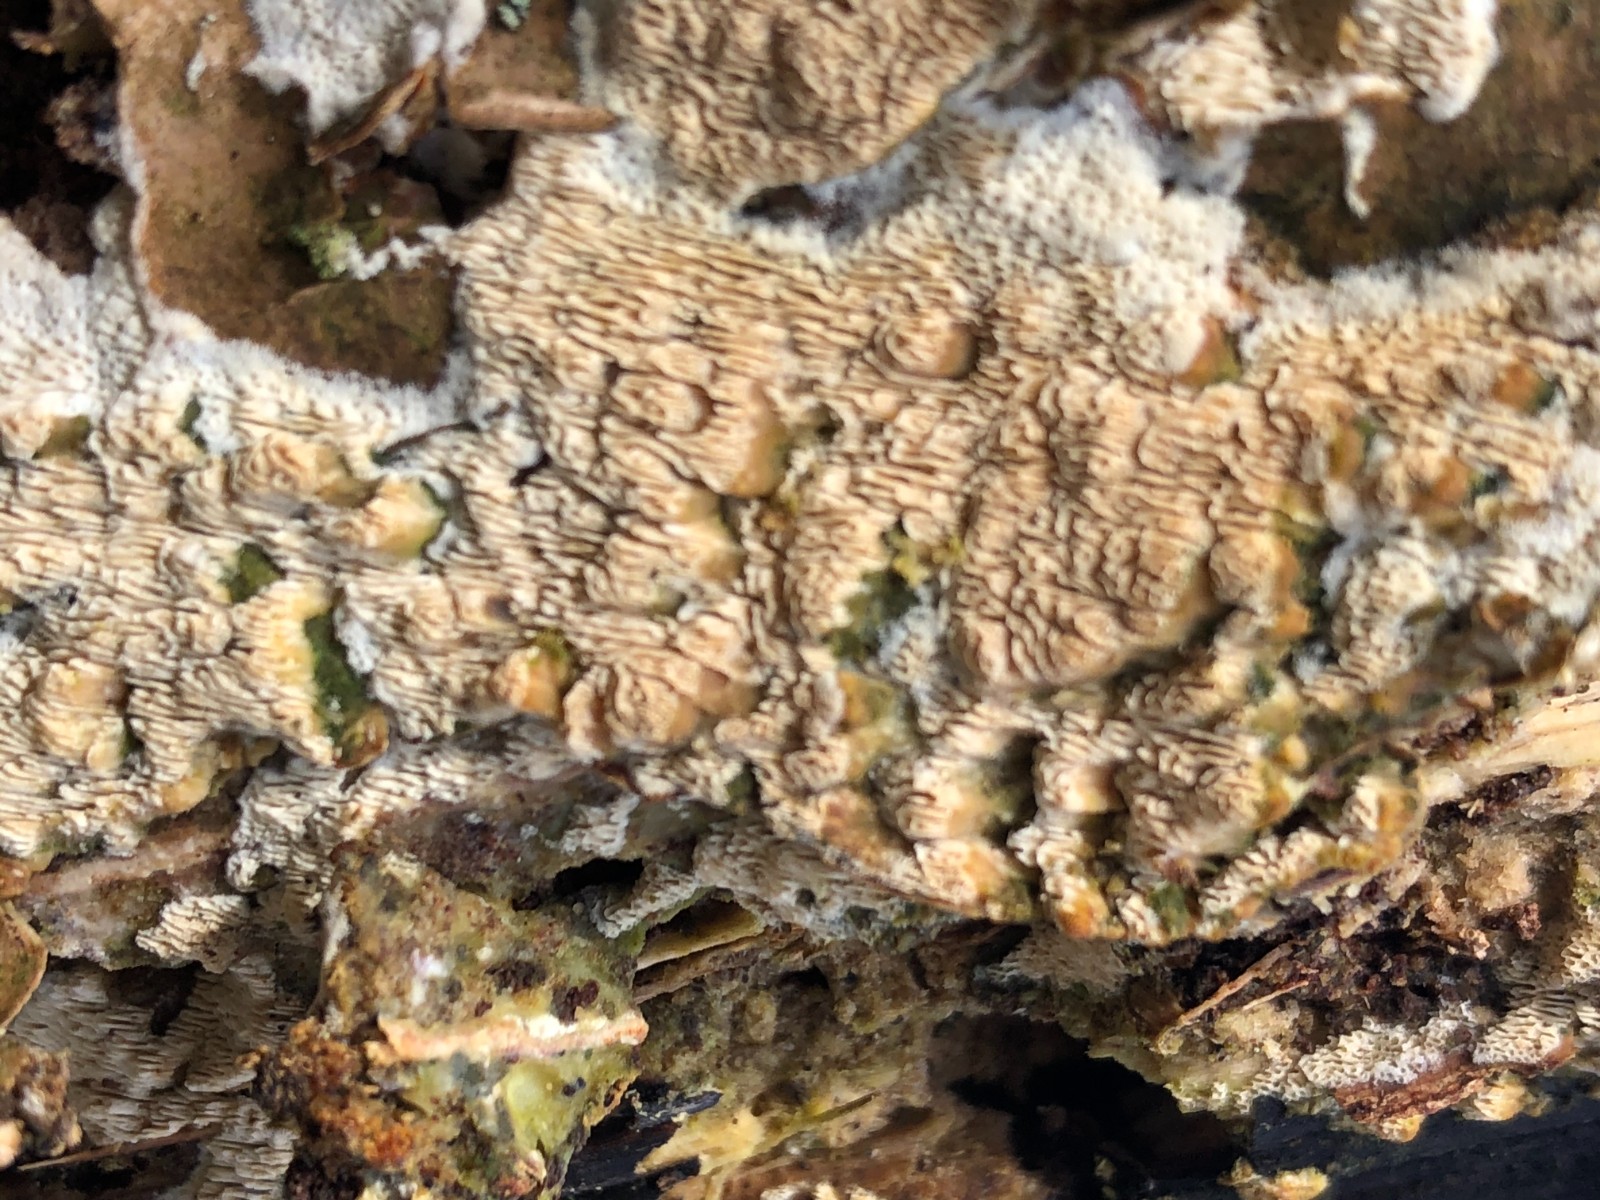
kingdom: Fungi
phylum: Basidiomycota
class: Agaricomycetes
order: Hymenochaetales
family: Schizoporaceae
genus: Schizopora
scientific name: Schizopora paradoxa
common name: hvid tandsvamp
